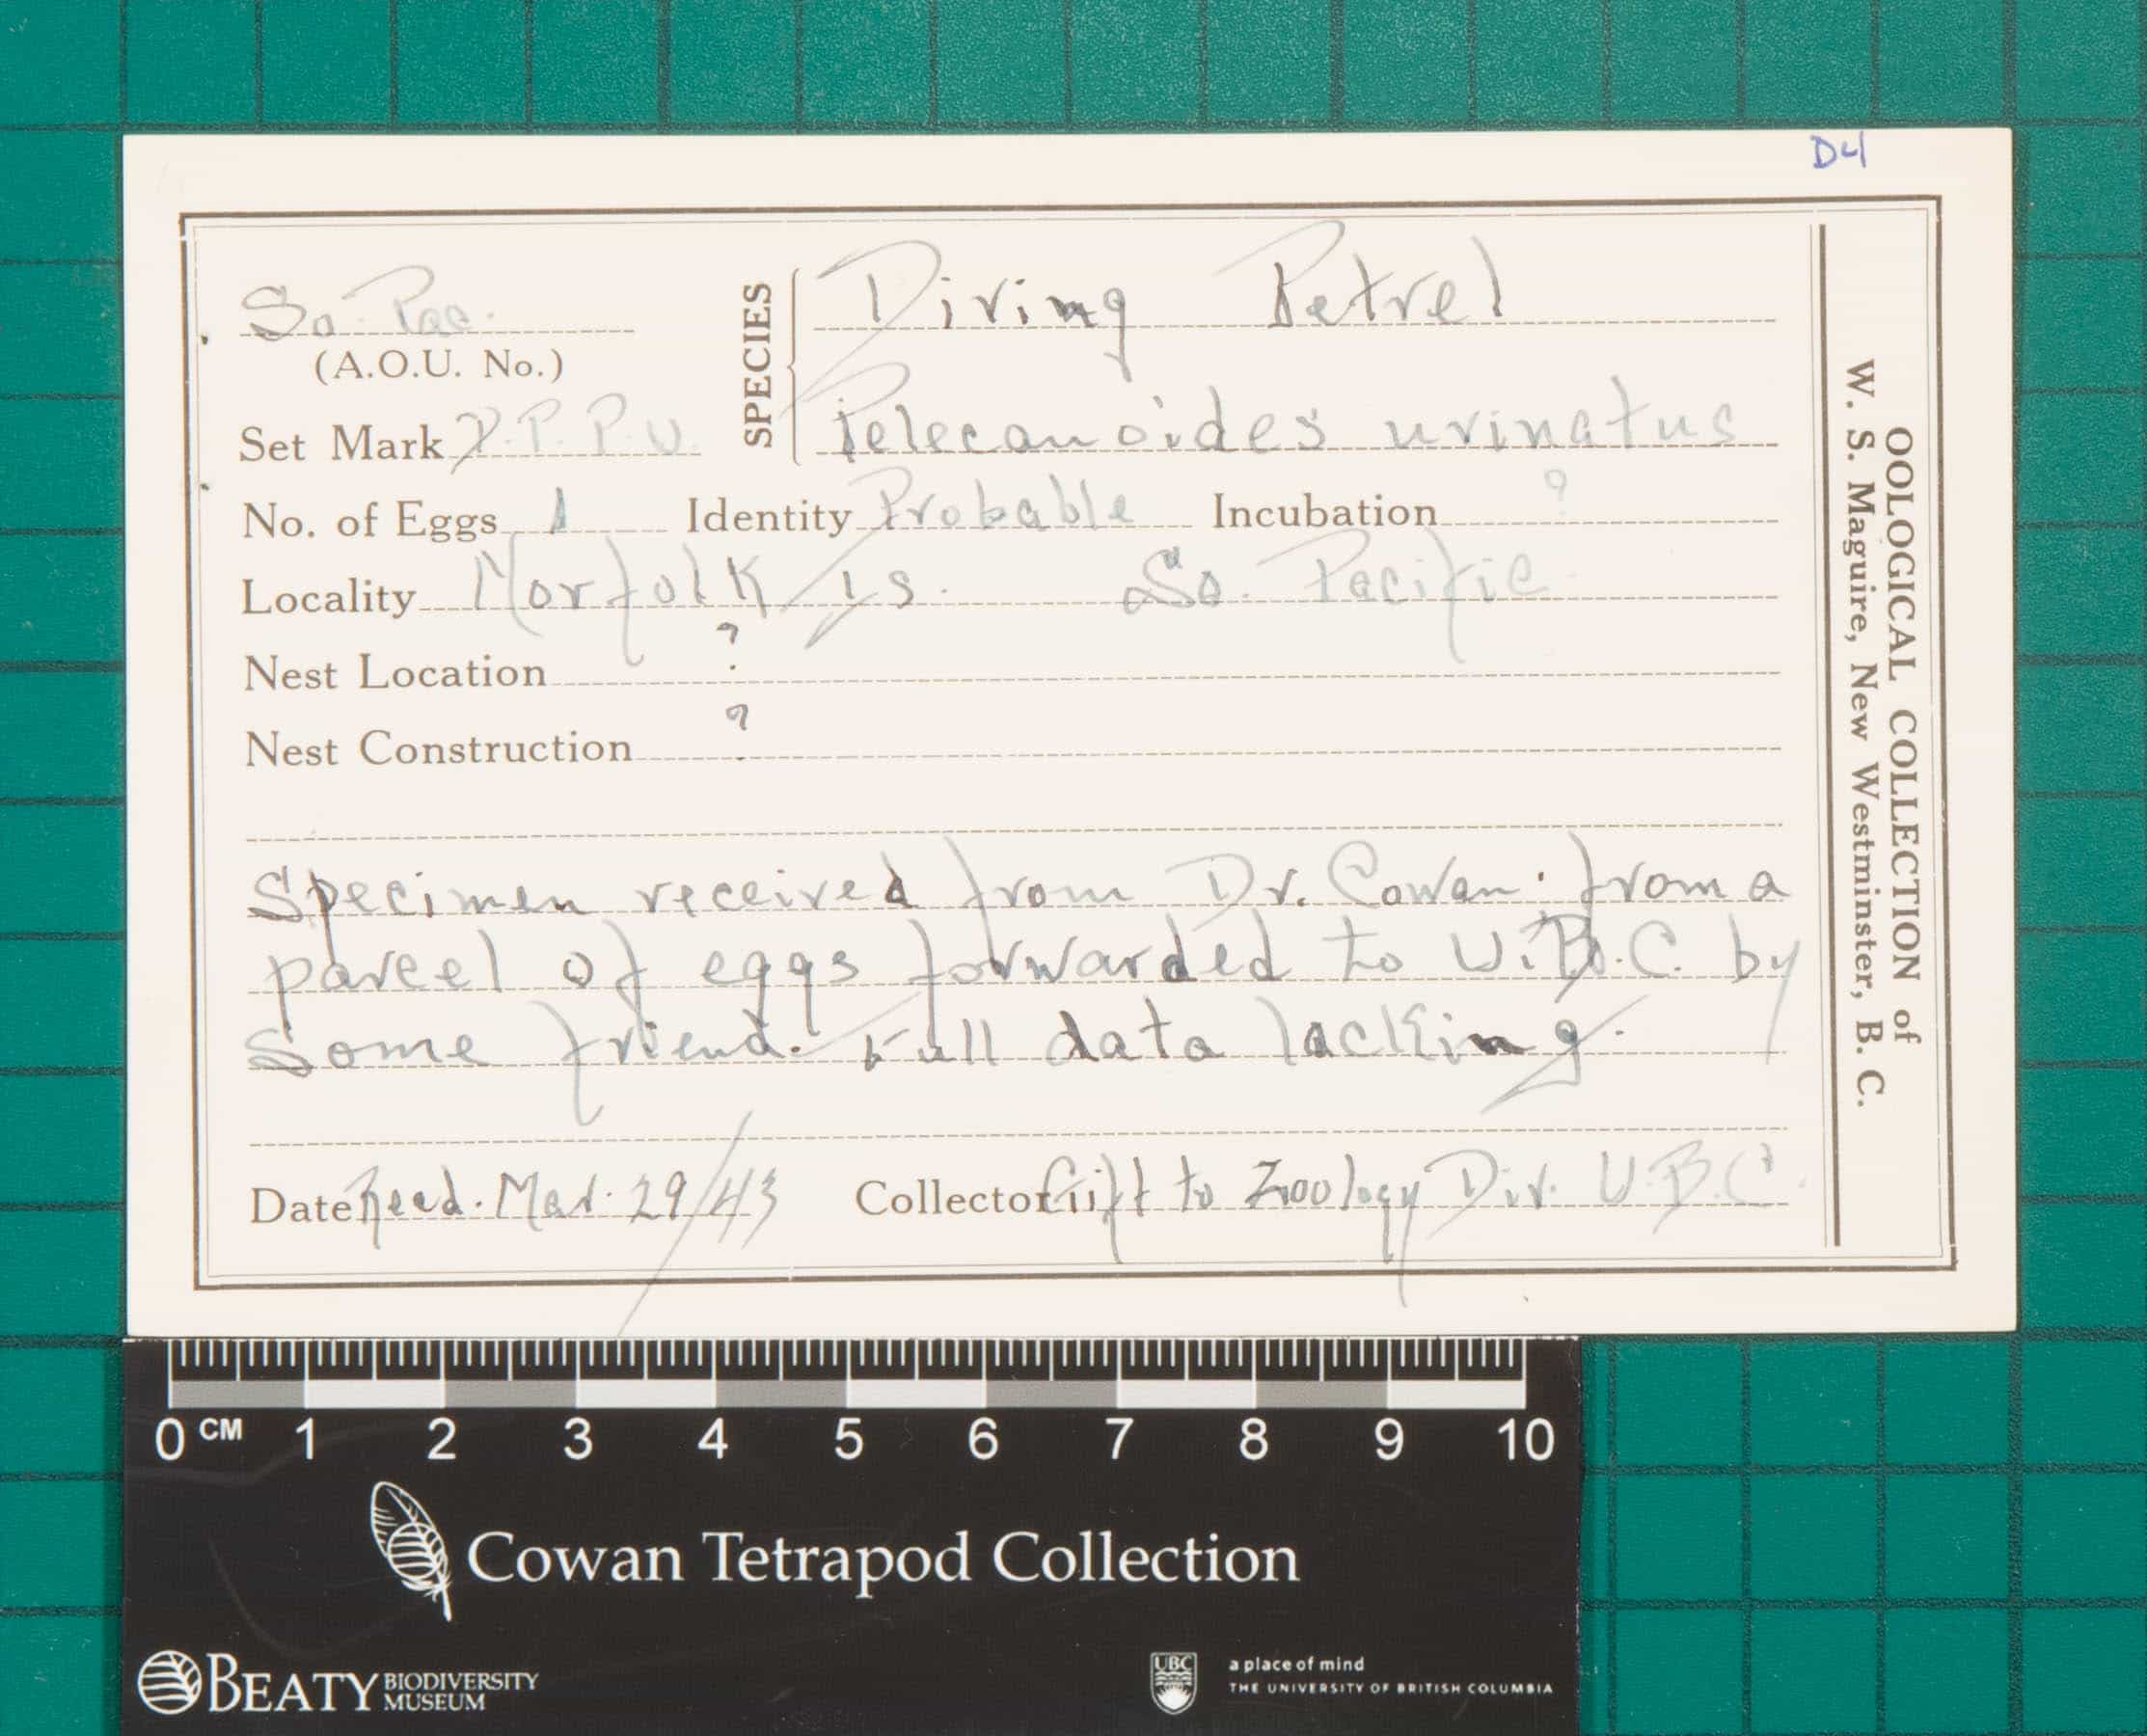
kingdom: Animalia
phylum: Chordata
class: Aves
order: Procellariiformes
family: Pelecanoididae
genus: Pelecanoides
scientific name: Pelecanoides urinatrix
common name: Common Diving-Petrel
